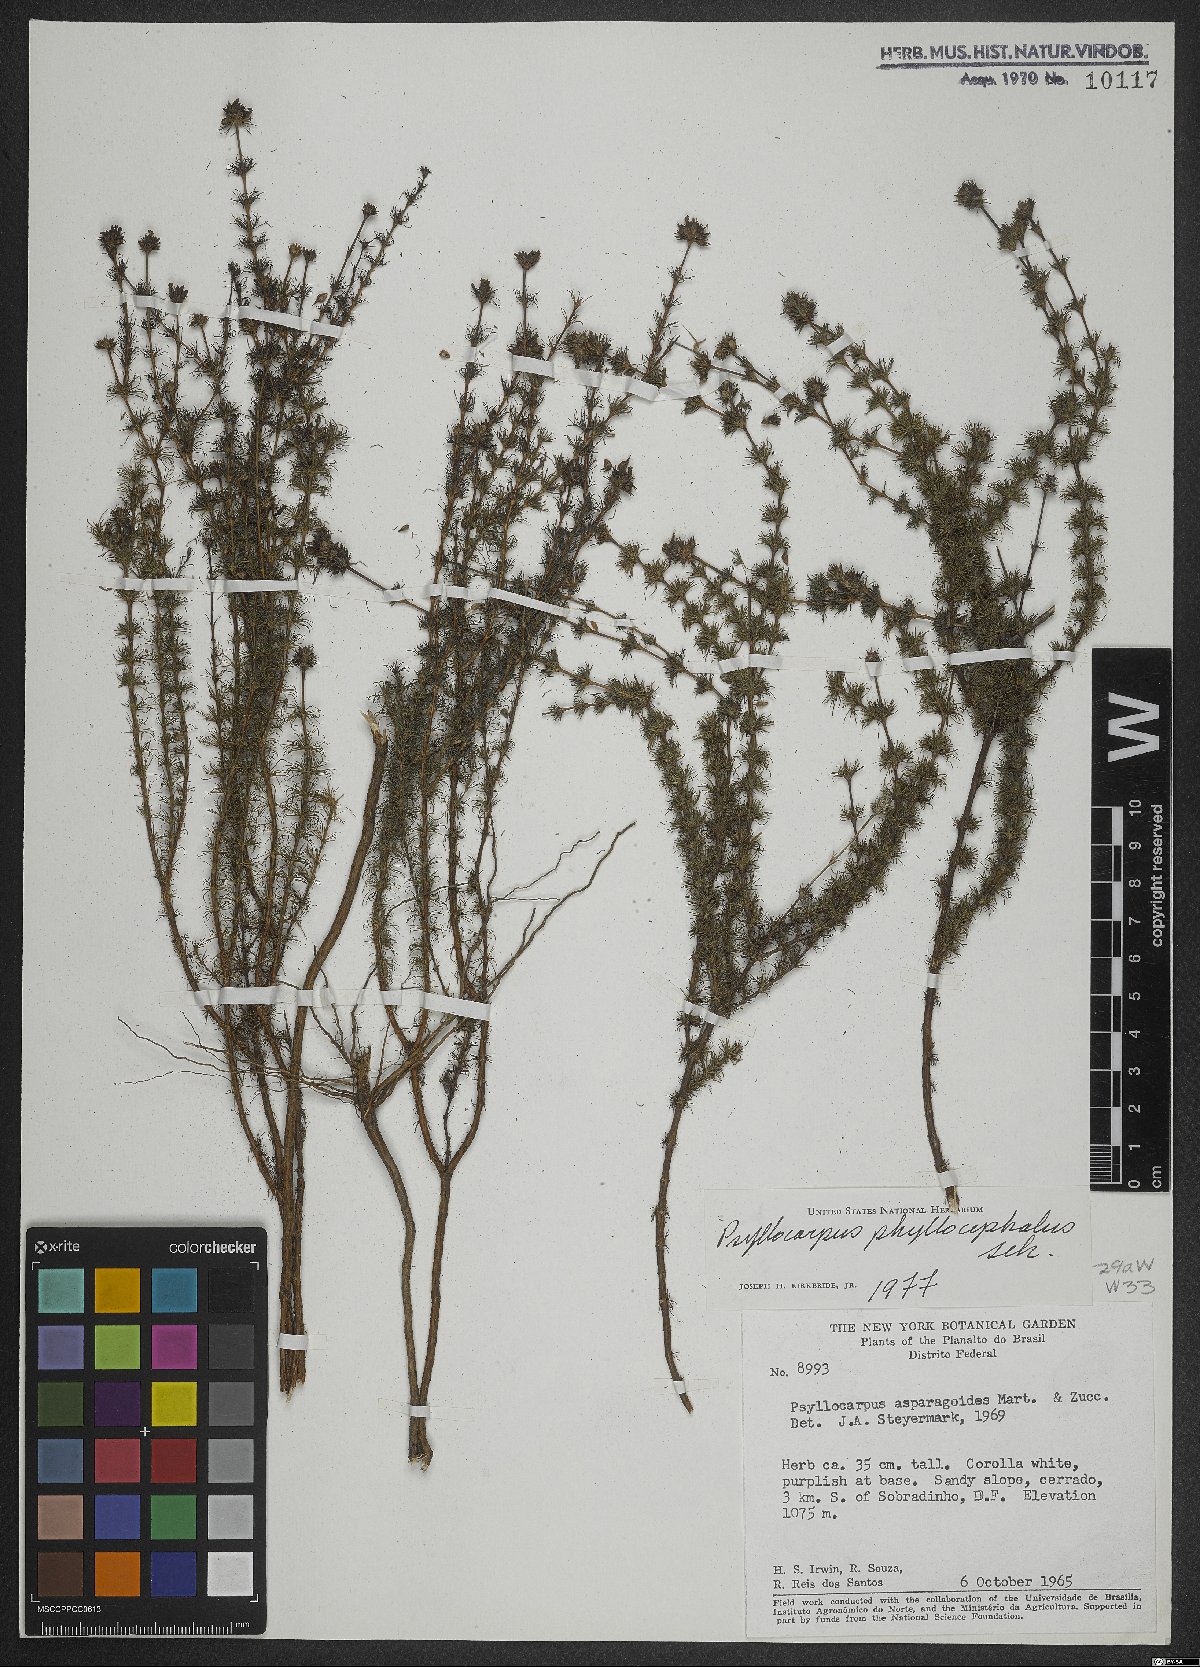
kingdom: Plantae
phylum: Tracheophyta
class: Magnoliopsida
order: Gentianales
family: Rubiaceae
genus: Psyllocarpus
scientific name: Psyllocarpus phyllocephalus
